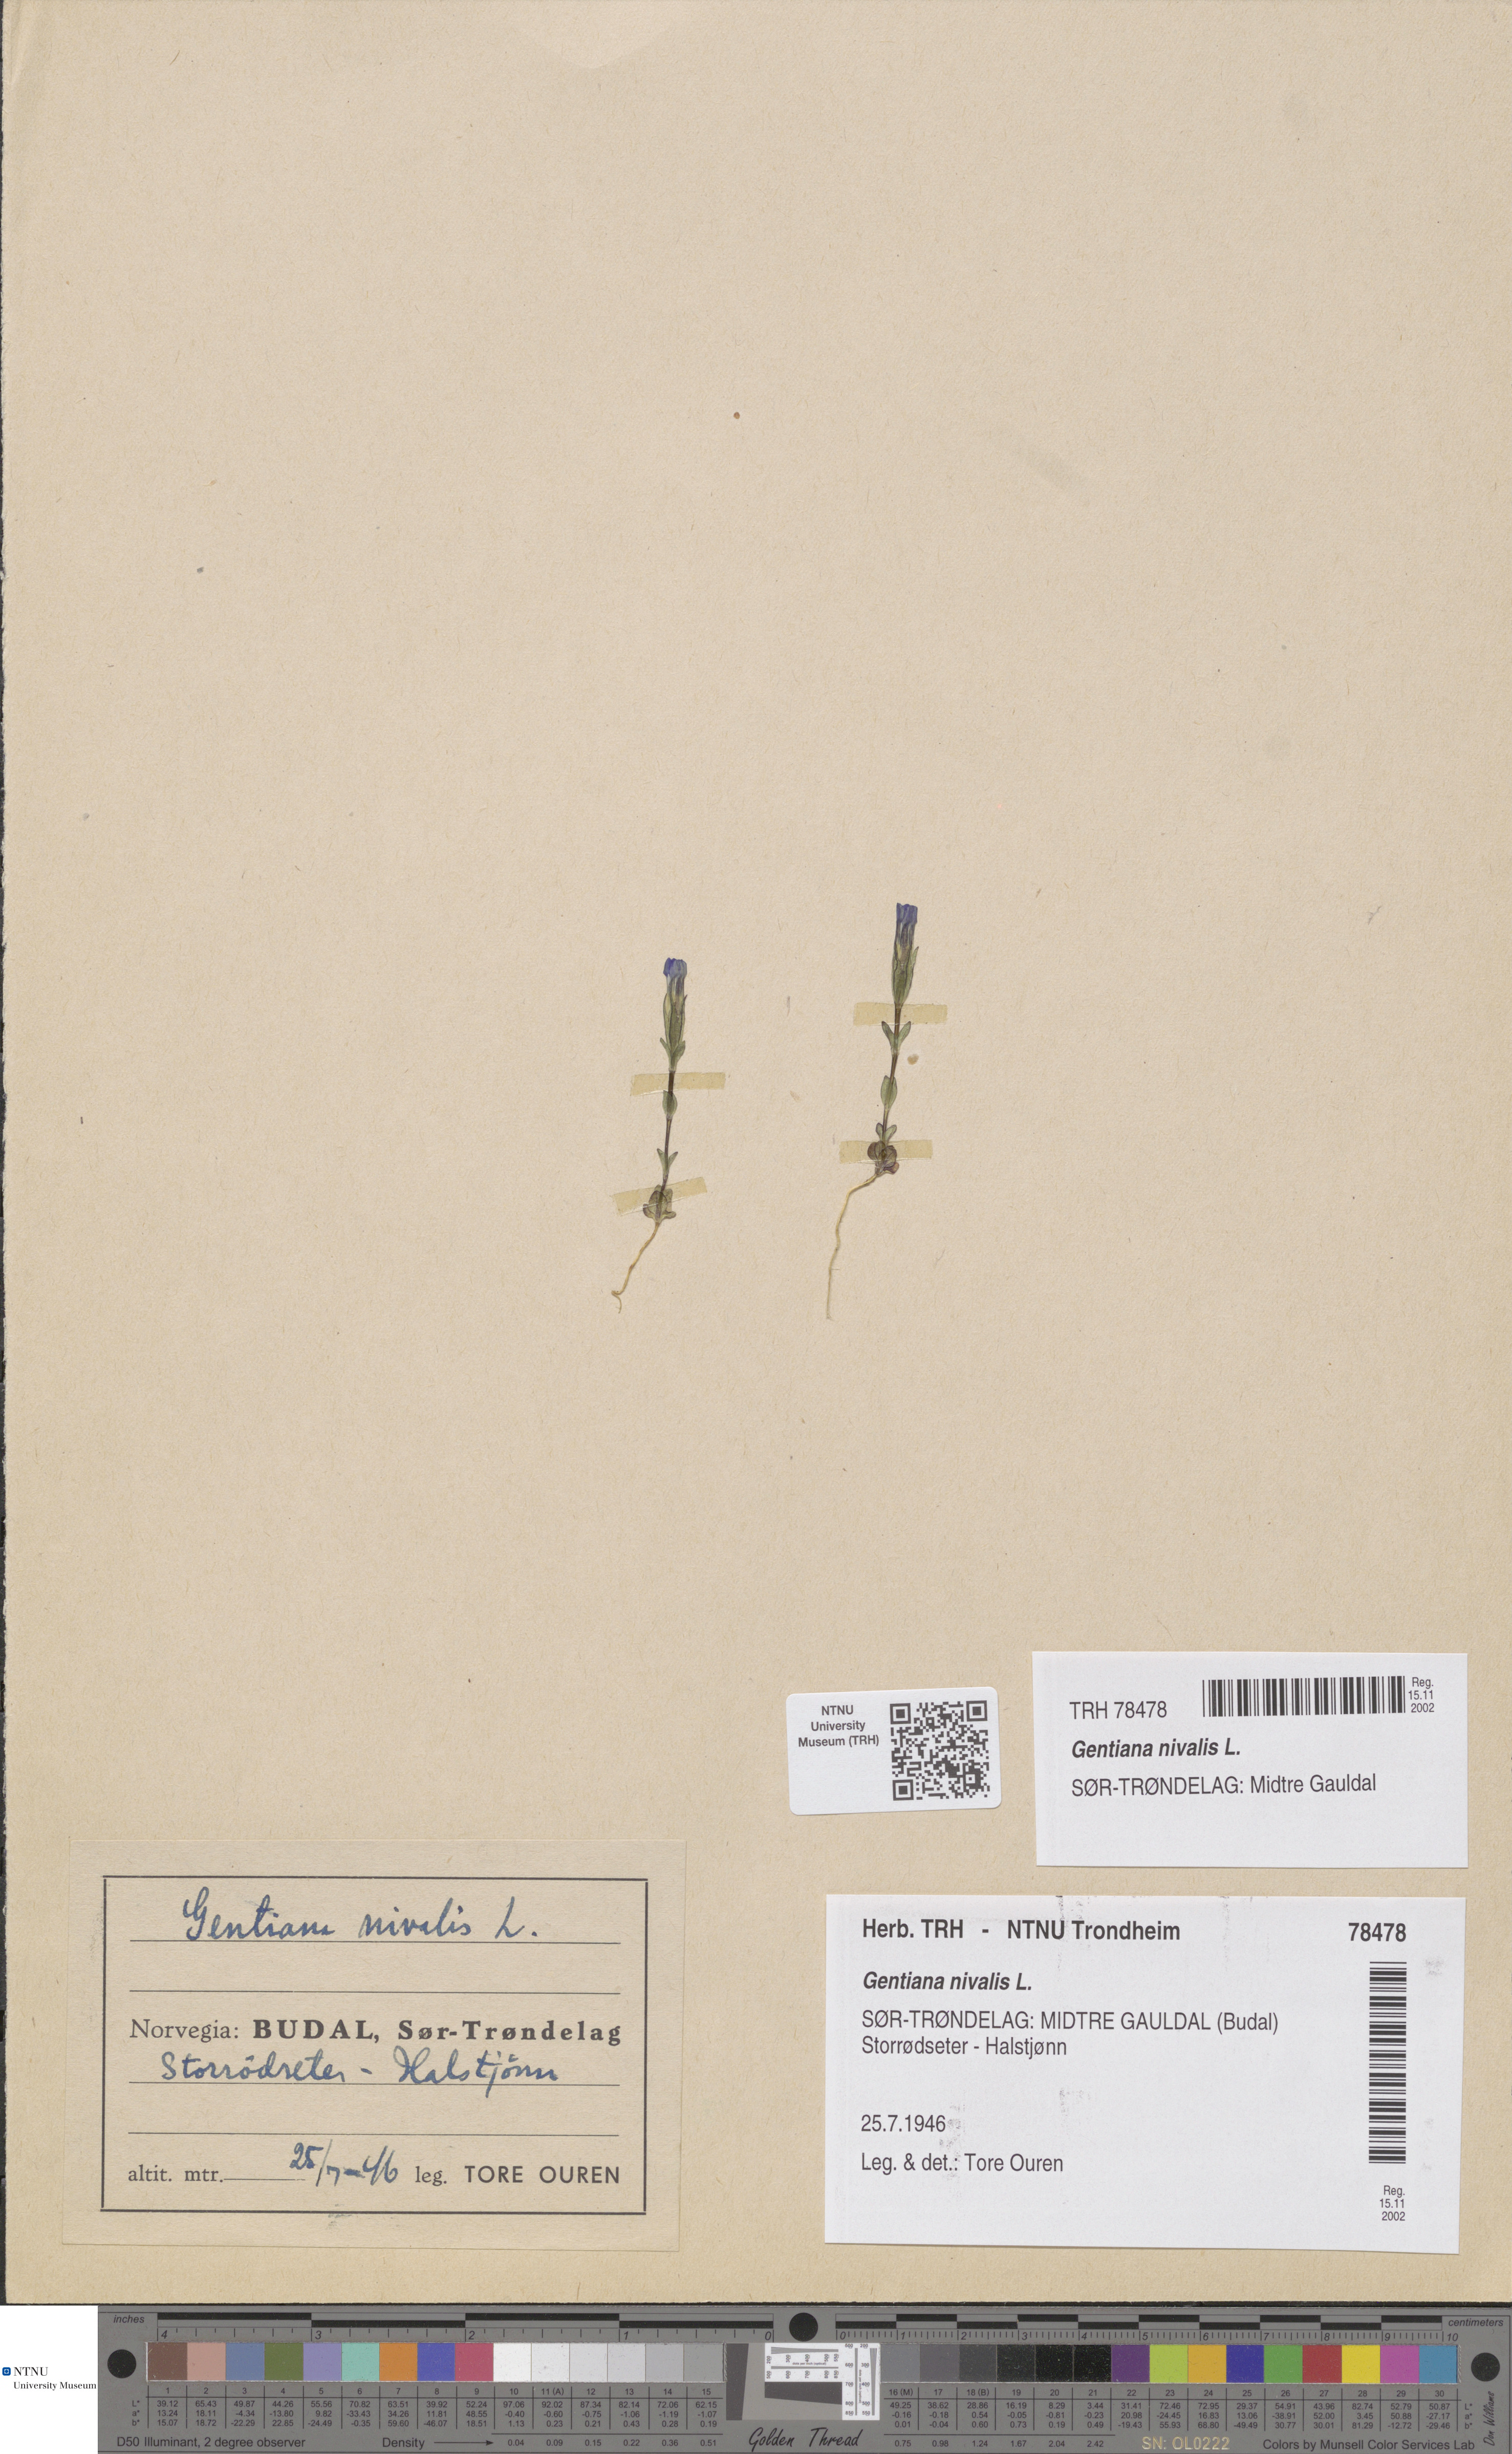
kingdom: Plantae
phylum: Tracheophyta
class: Magnoliopsida
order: Gentianales
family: Gentianaceae
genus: Gentiana
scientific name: Gentiana nivalis
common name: Alpine gentian
